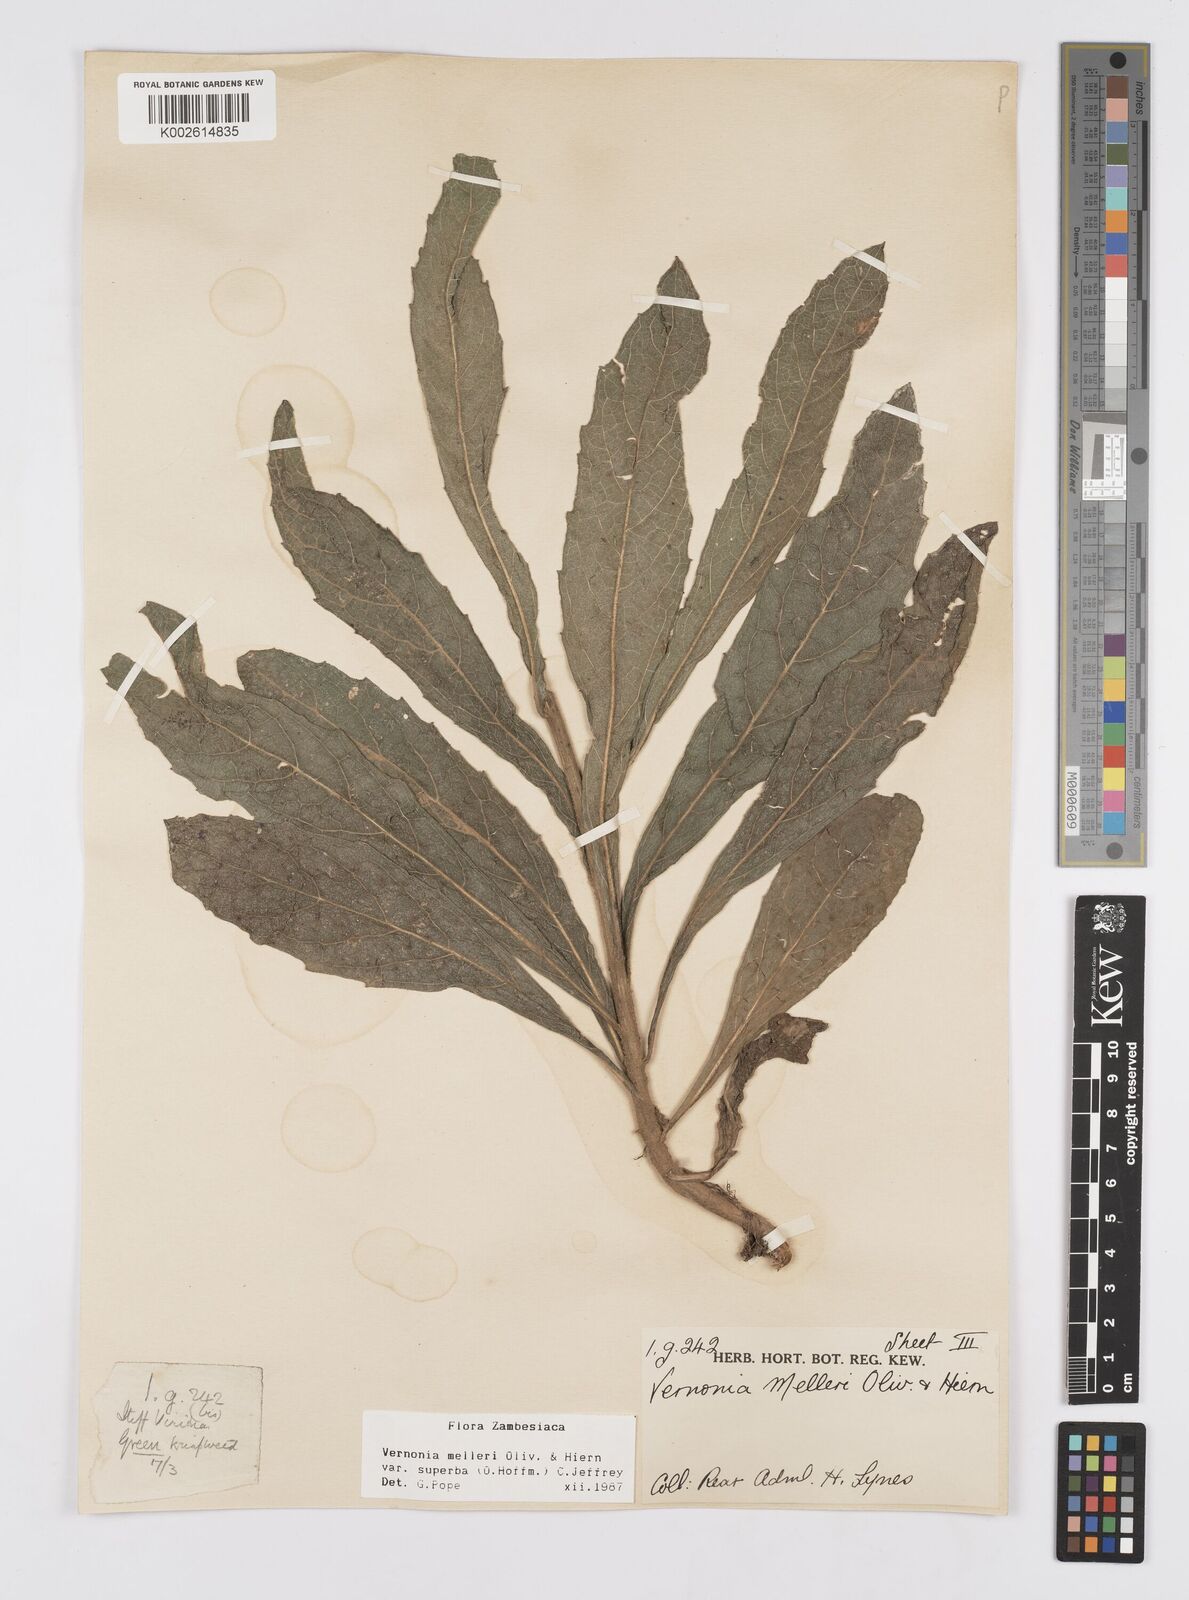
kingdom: Plantae
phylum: Tracheophyta
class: Magnoliopsida
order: Asterales
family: Asteraceae
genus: Linzia
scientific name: Linzia melleri
